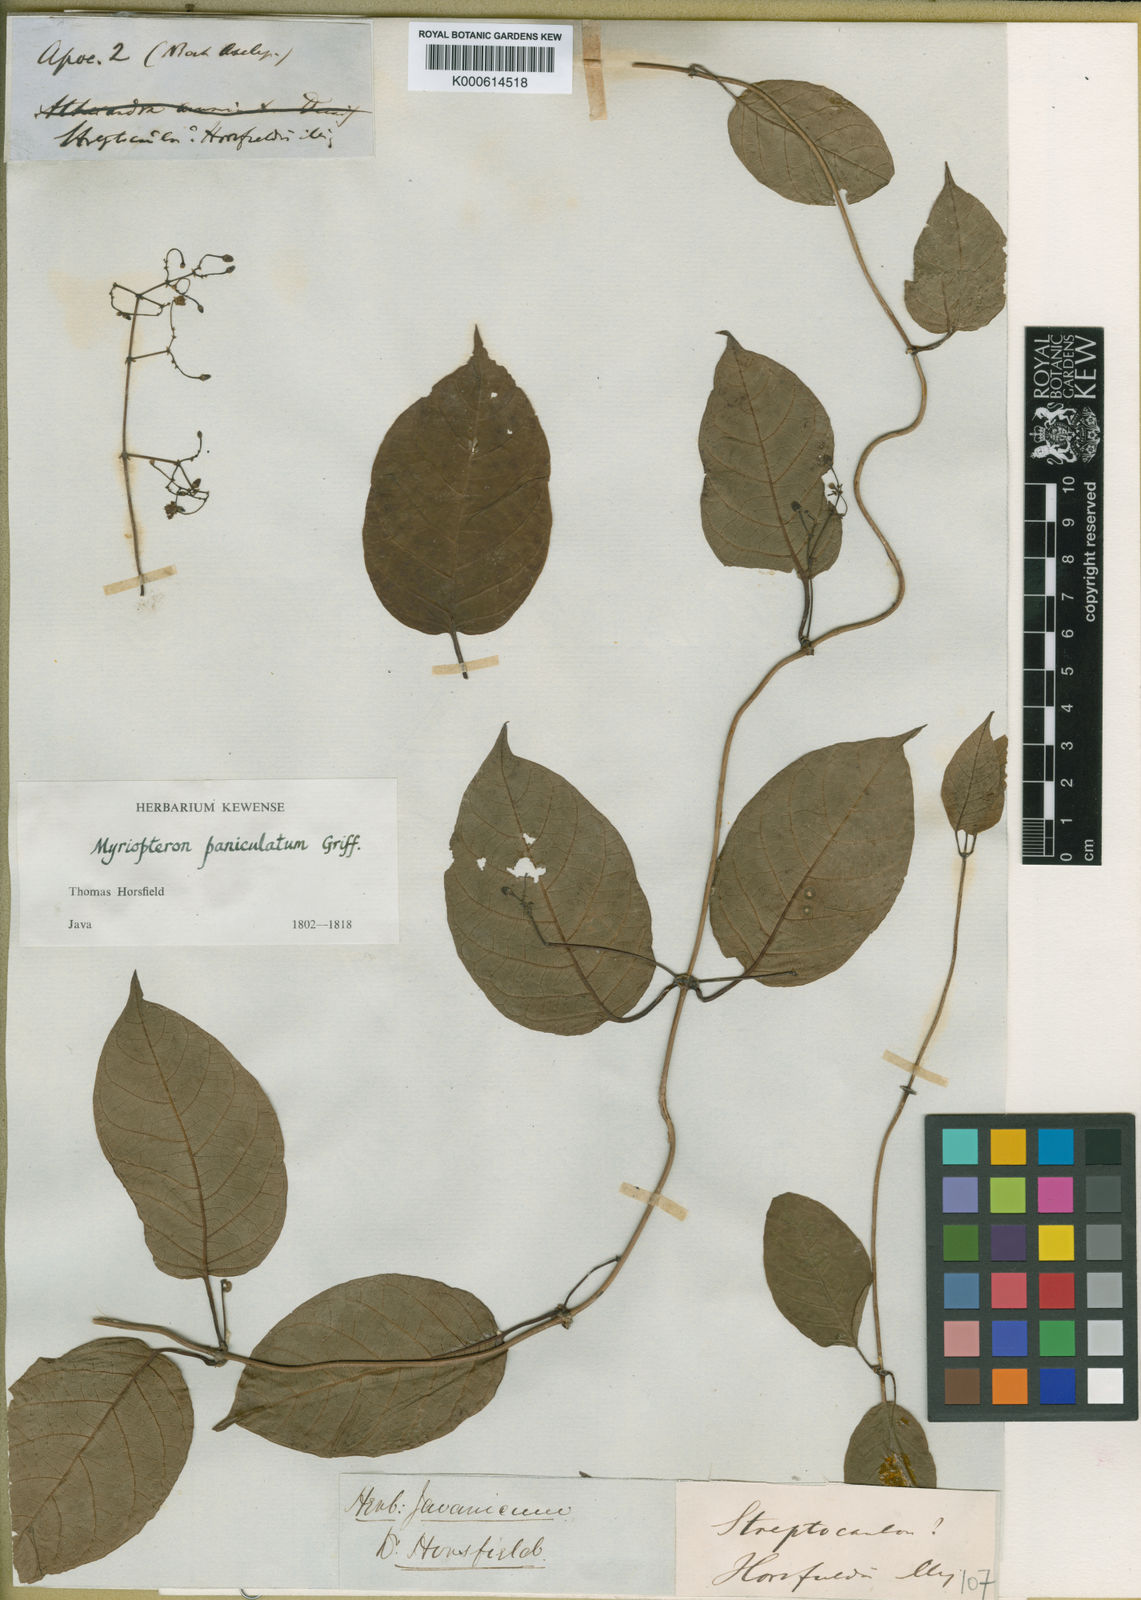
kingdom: Plantae
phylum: Tracheophyta
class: Magnoliopsida
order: Gentianales
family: Apocynaceae
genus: Myriopteron
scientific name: Myriopteron extensum
